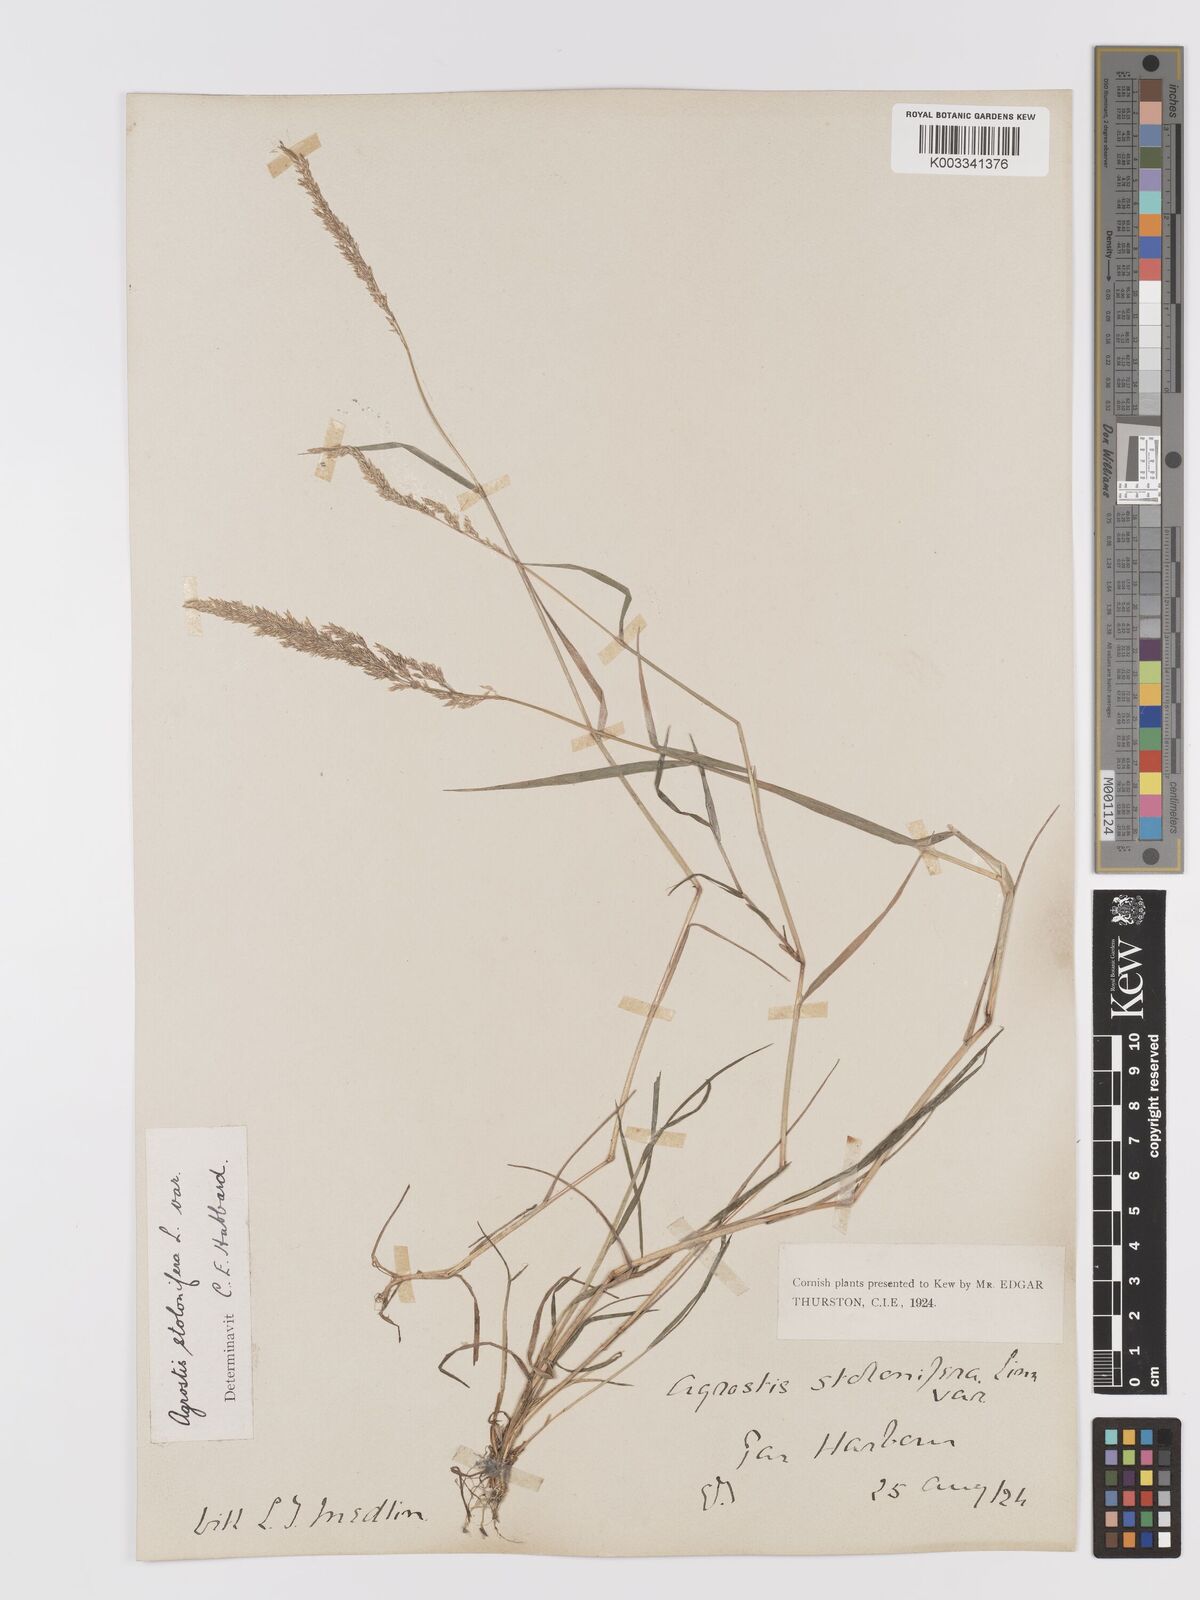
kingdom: Plantae
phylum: Tracheophyta
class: Liliopsida
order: Poales
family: Poaceae
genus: Agrostis
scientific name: Agrostis stolonifera
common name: Creeping bentgrass
